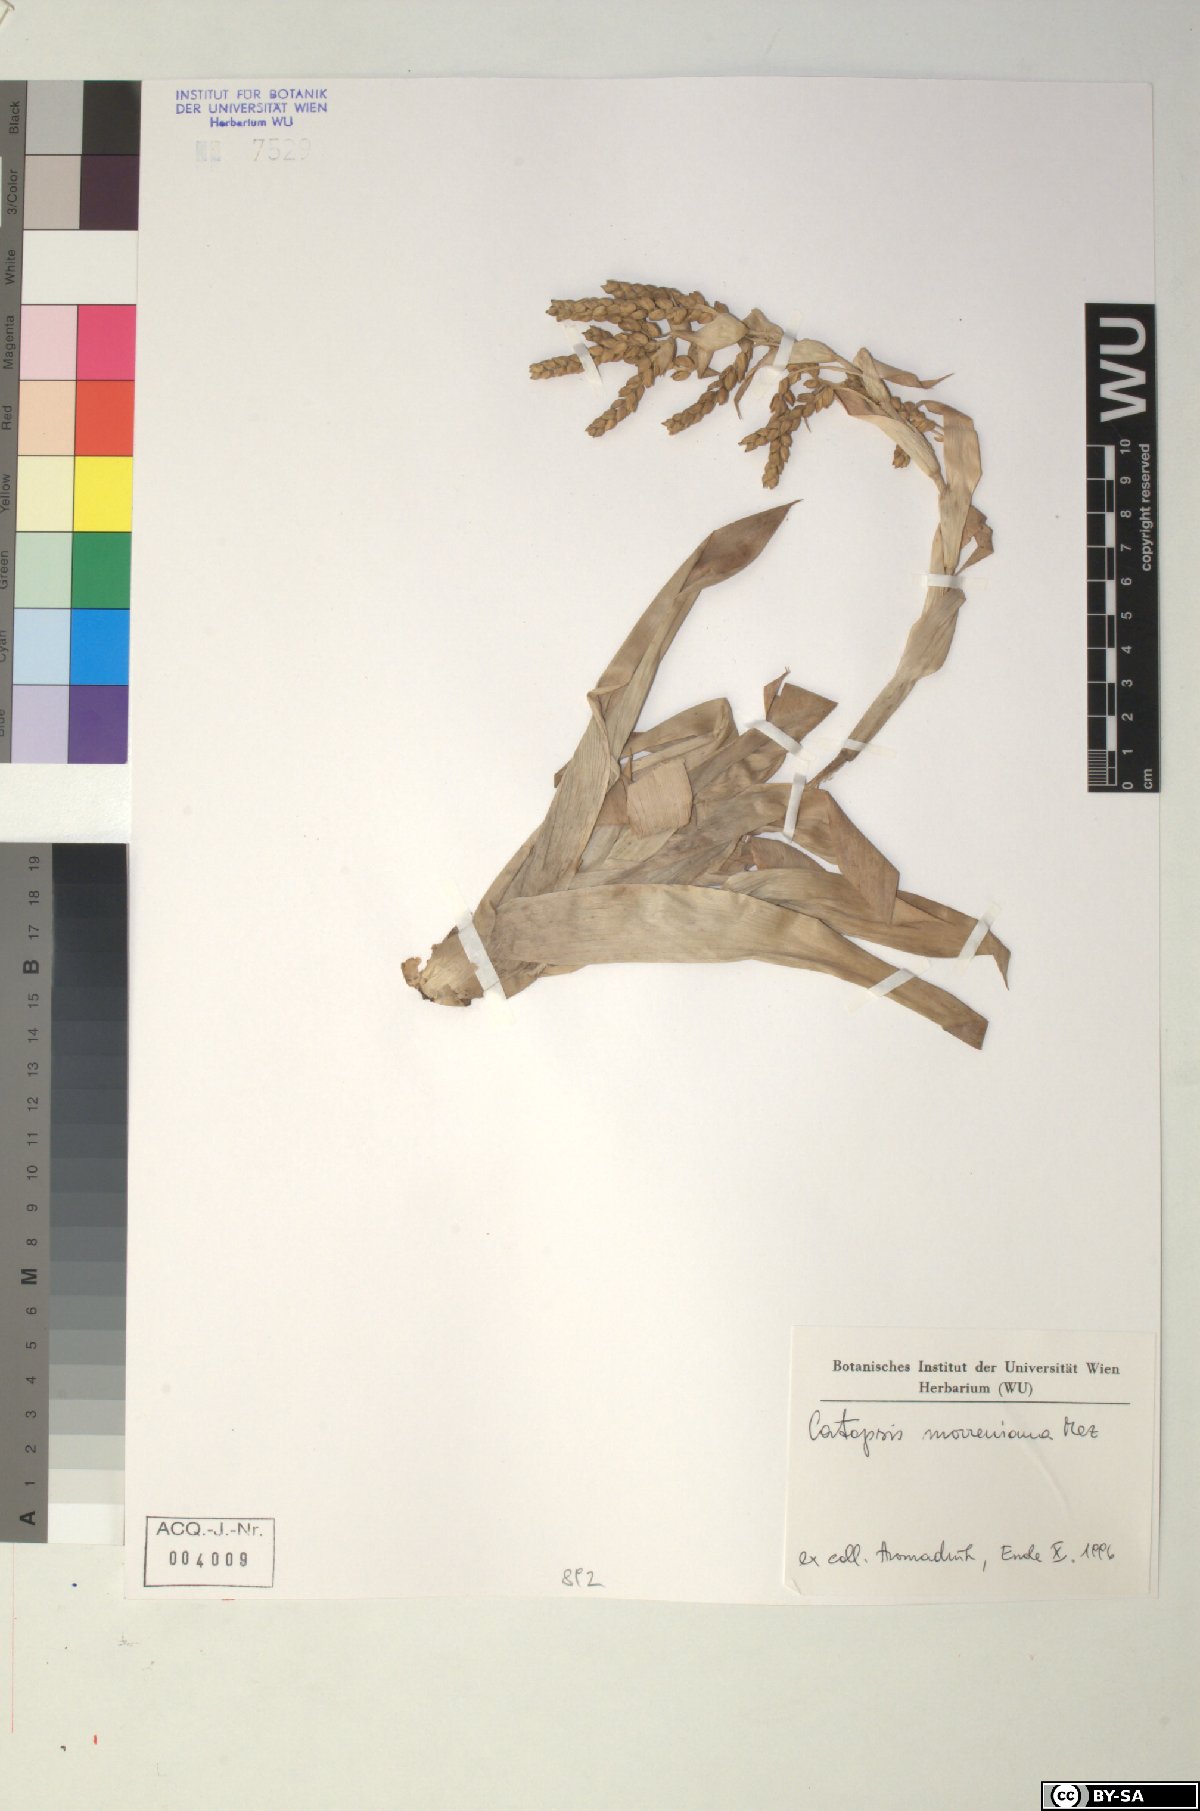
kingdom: Plantae
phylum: Tracheophyta
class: Liliopsida
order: Poales
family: Bromeliaceae
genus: Catopsis
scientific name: Catopsis morreniana
